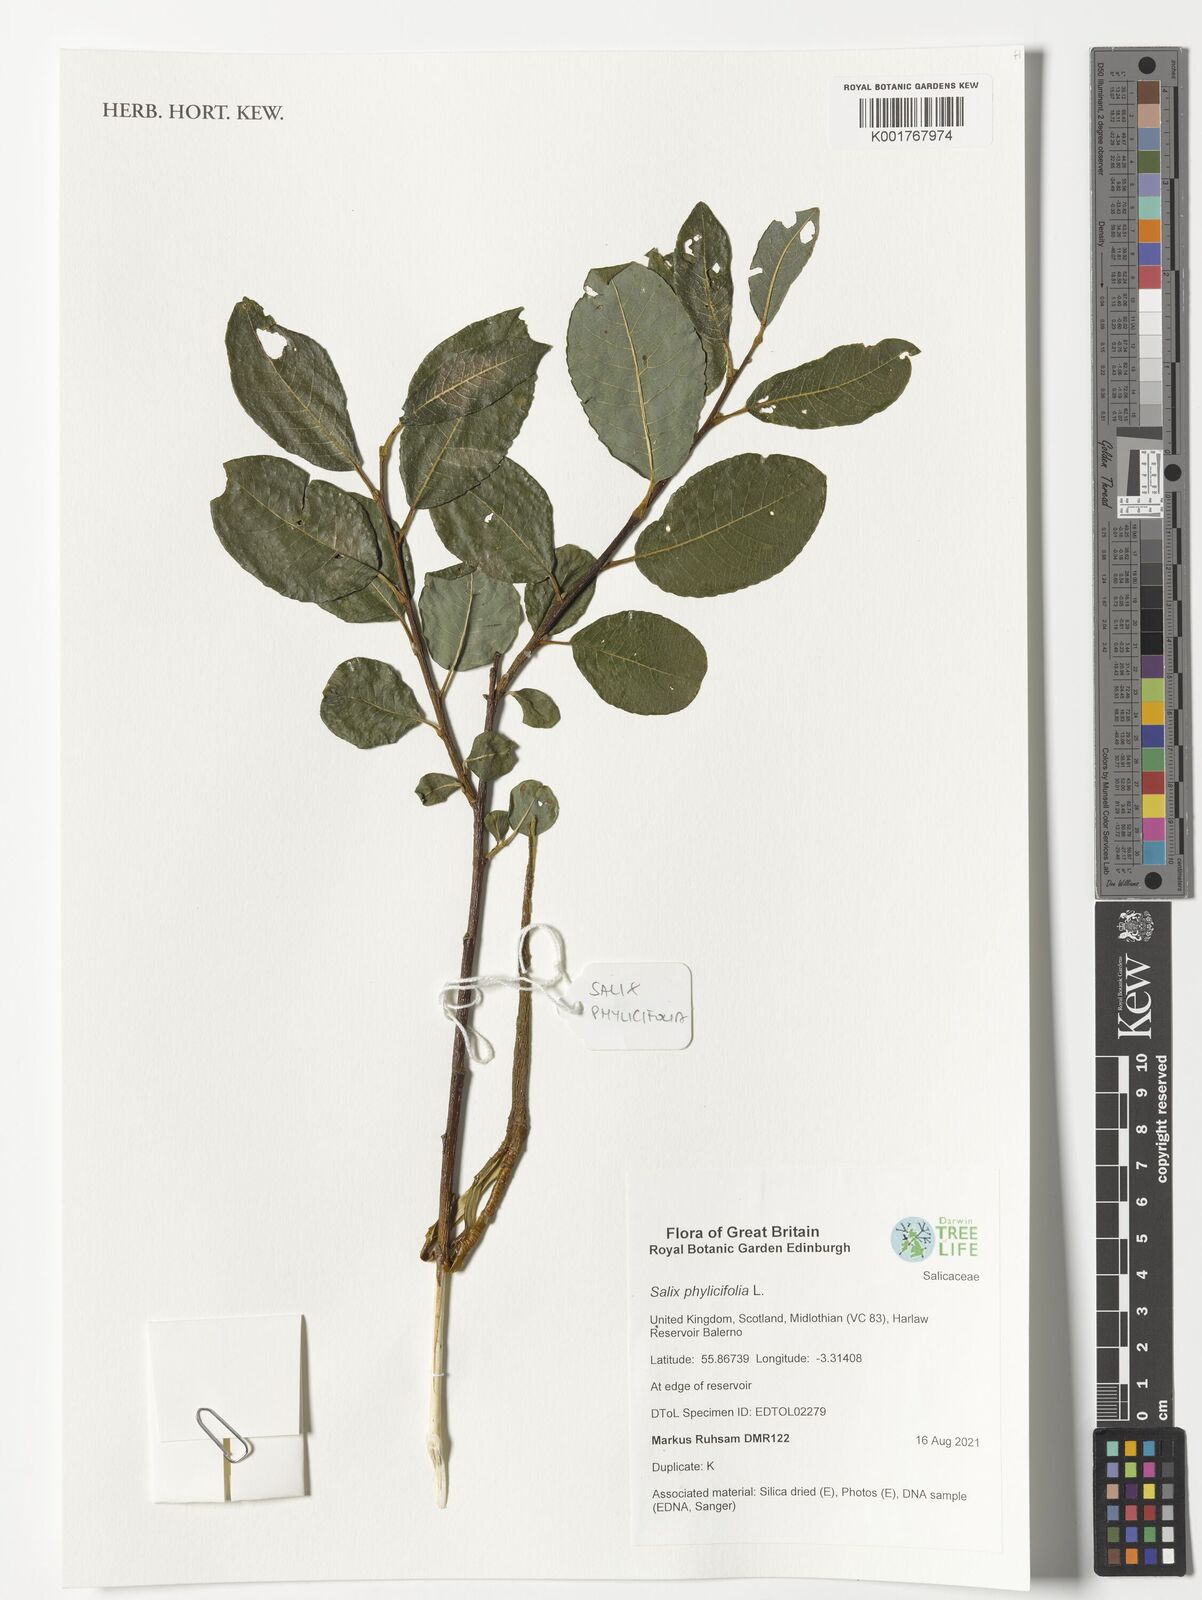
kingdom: Plantae
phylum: Tracheophyta
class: Magnoliopsida
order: Malpighiales
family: Salicaceae
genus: Salix
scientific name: Salix phylicifolia
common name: Tea-leaved willow
